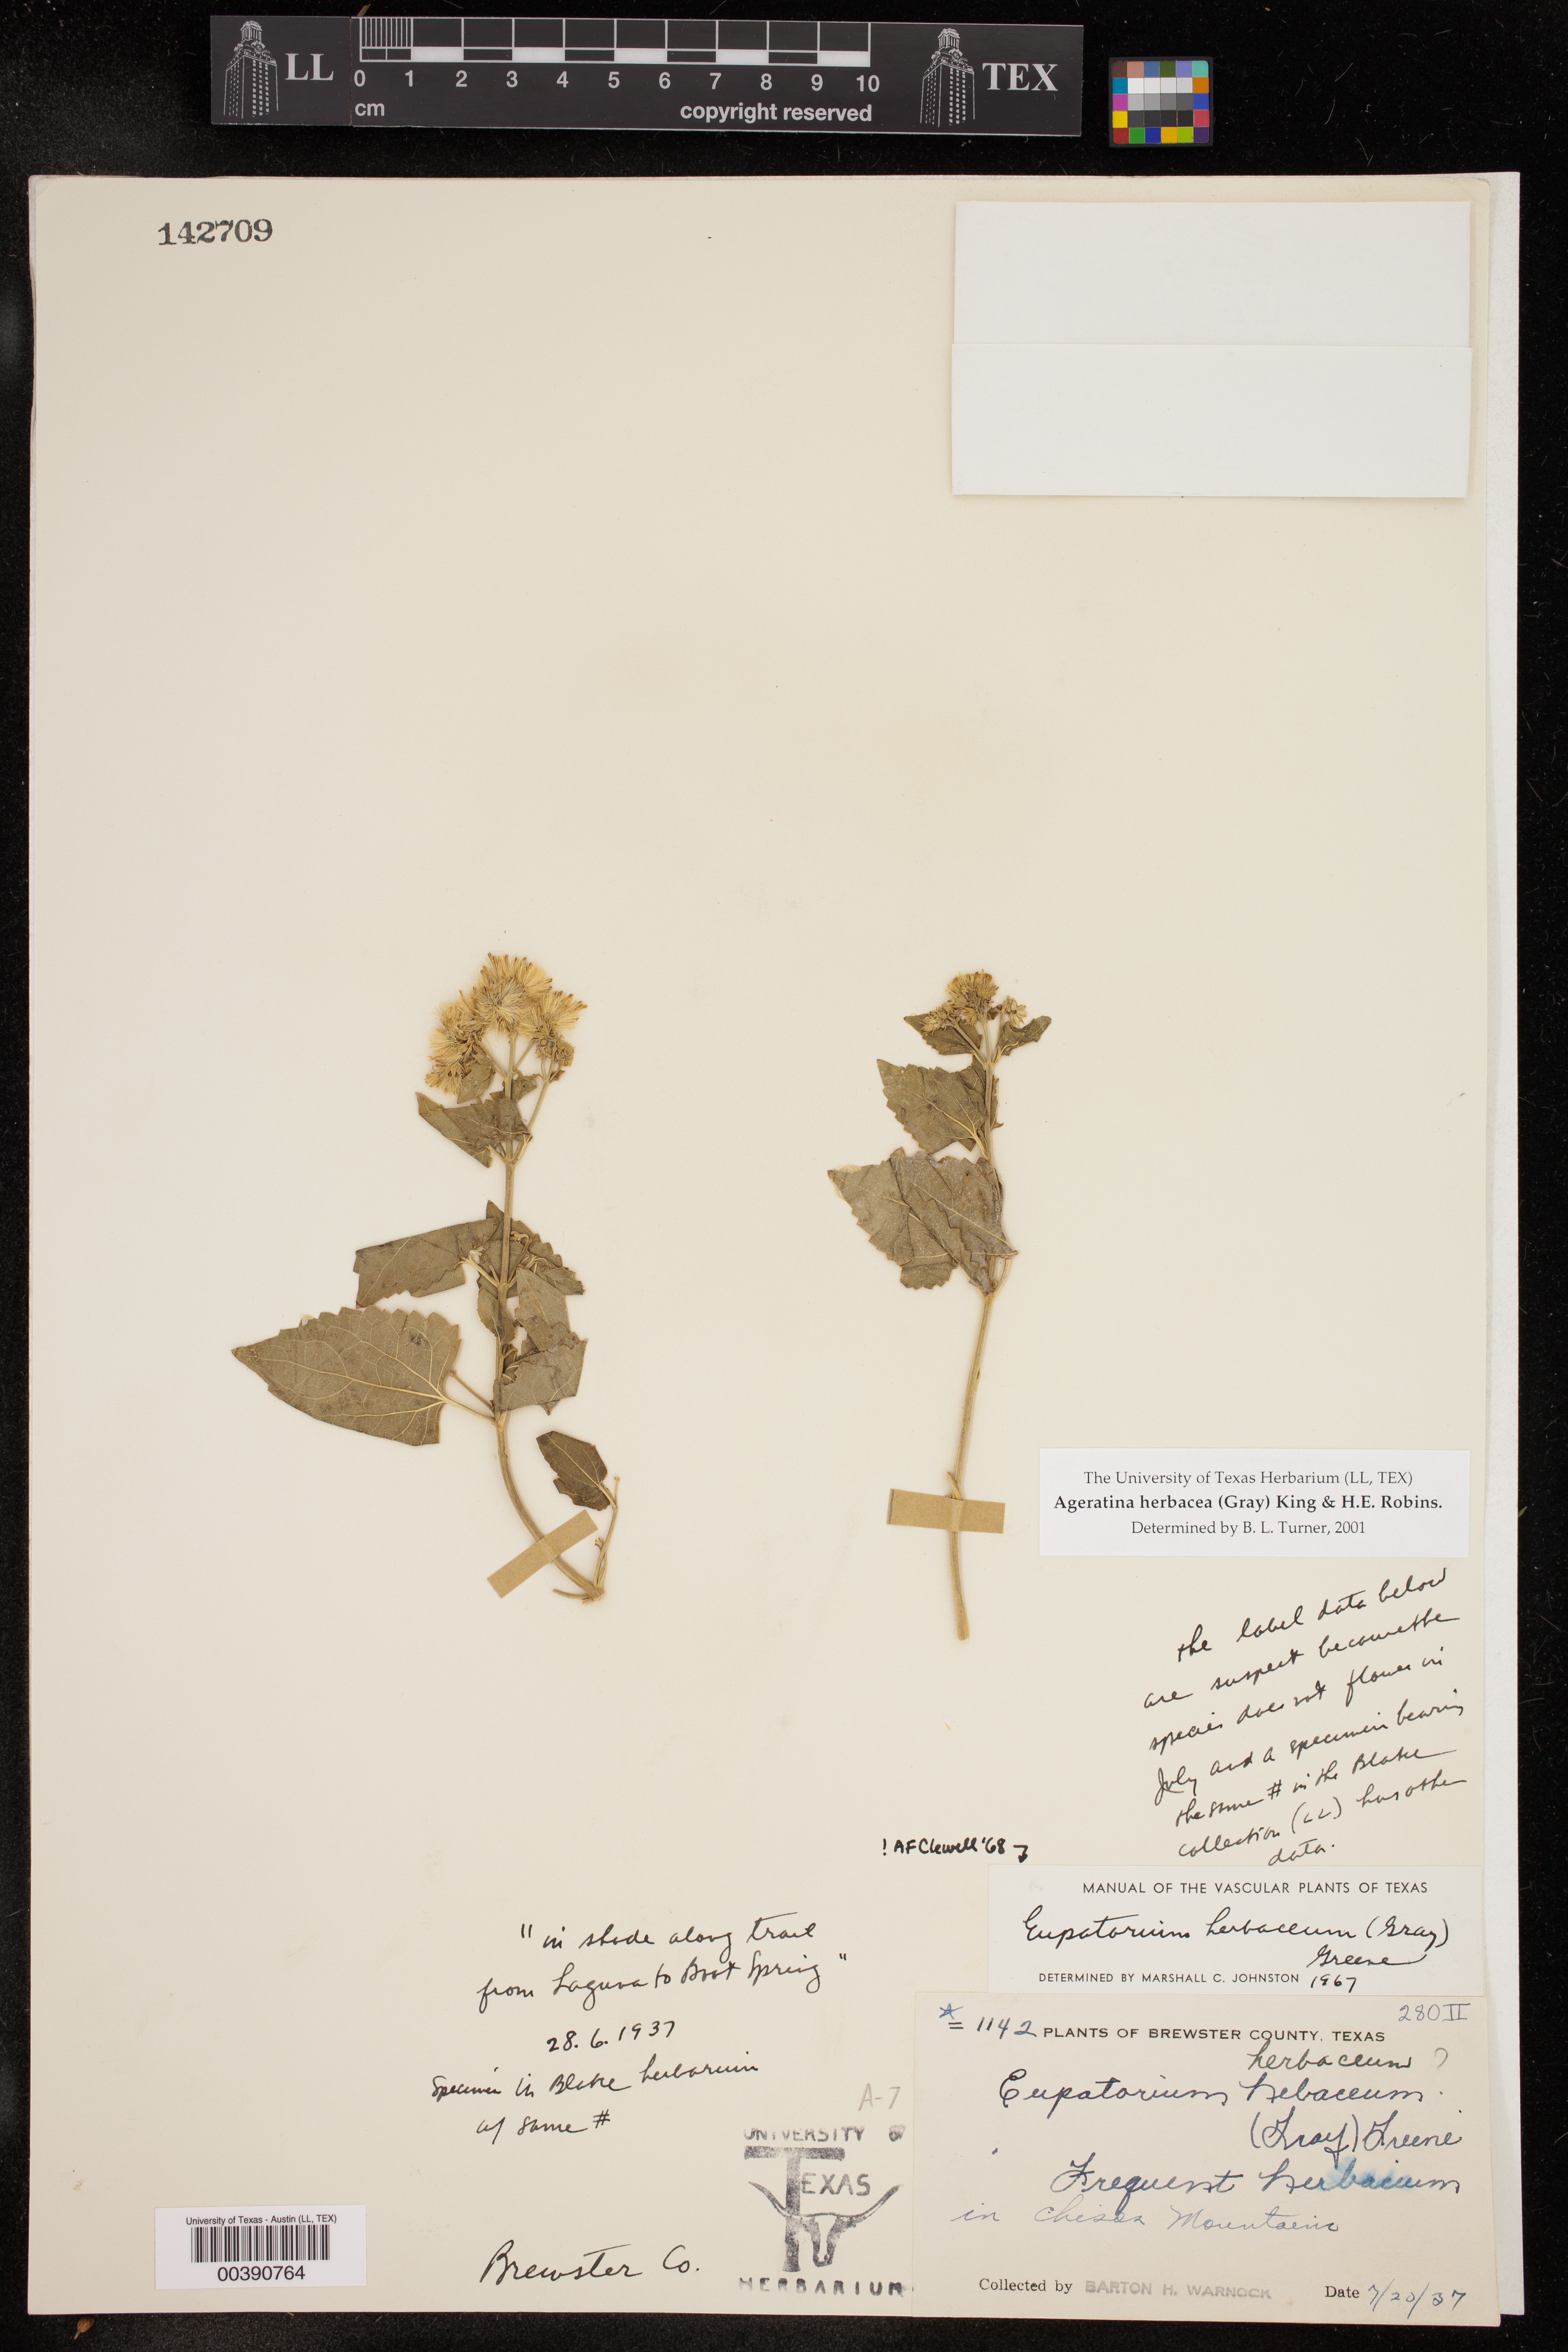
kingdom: Plantae
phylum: Tracheophyta
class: Magnoliopsida
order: Asterales
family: Asteraceae
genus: Ageratina
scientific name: Ageratina herbacea
